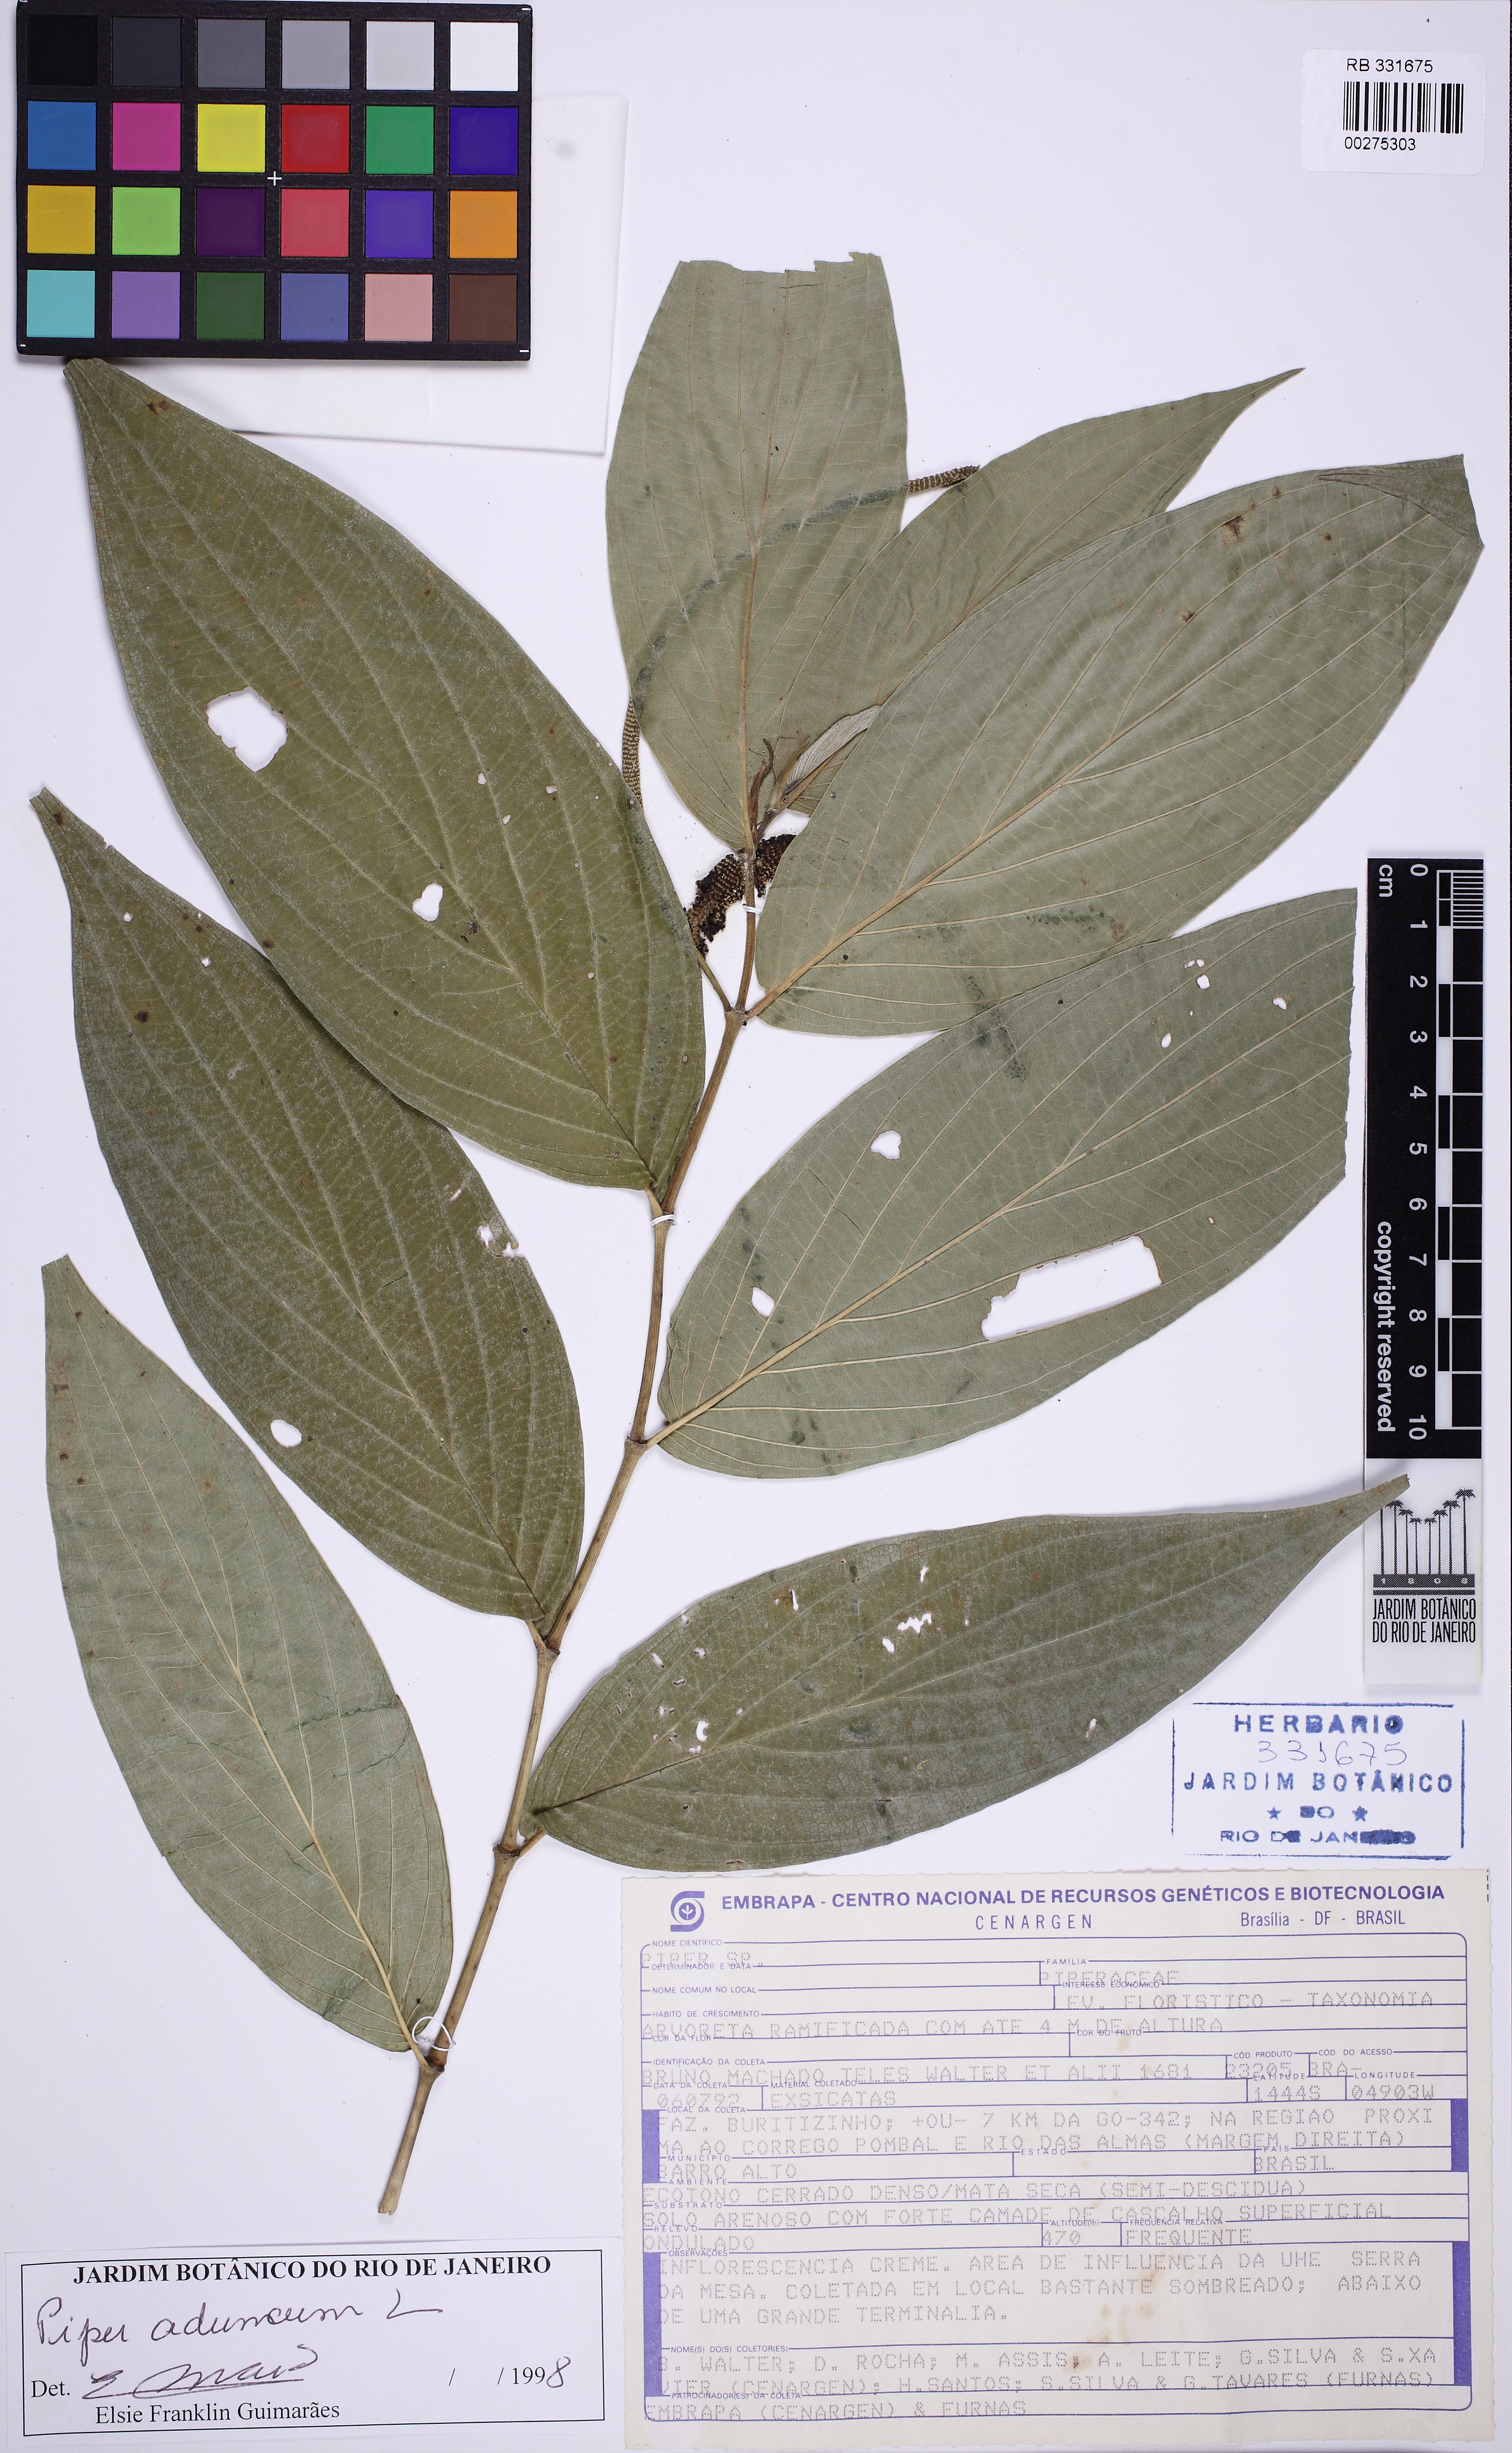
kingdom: Plantae
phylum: Tracheophyta
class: Magnoliopsida
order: Piperales
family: Piperaceae
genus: Piper
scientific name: Piper aduncum
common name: Spiked pepper
